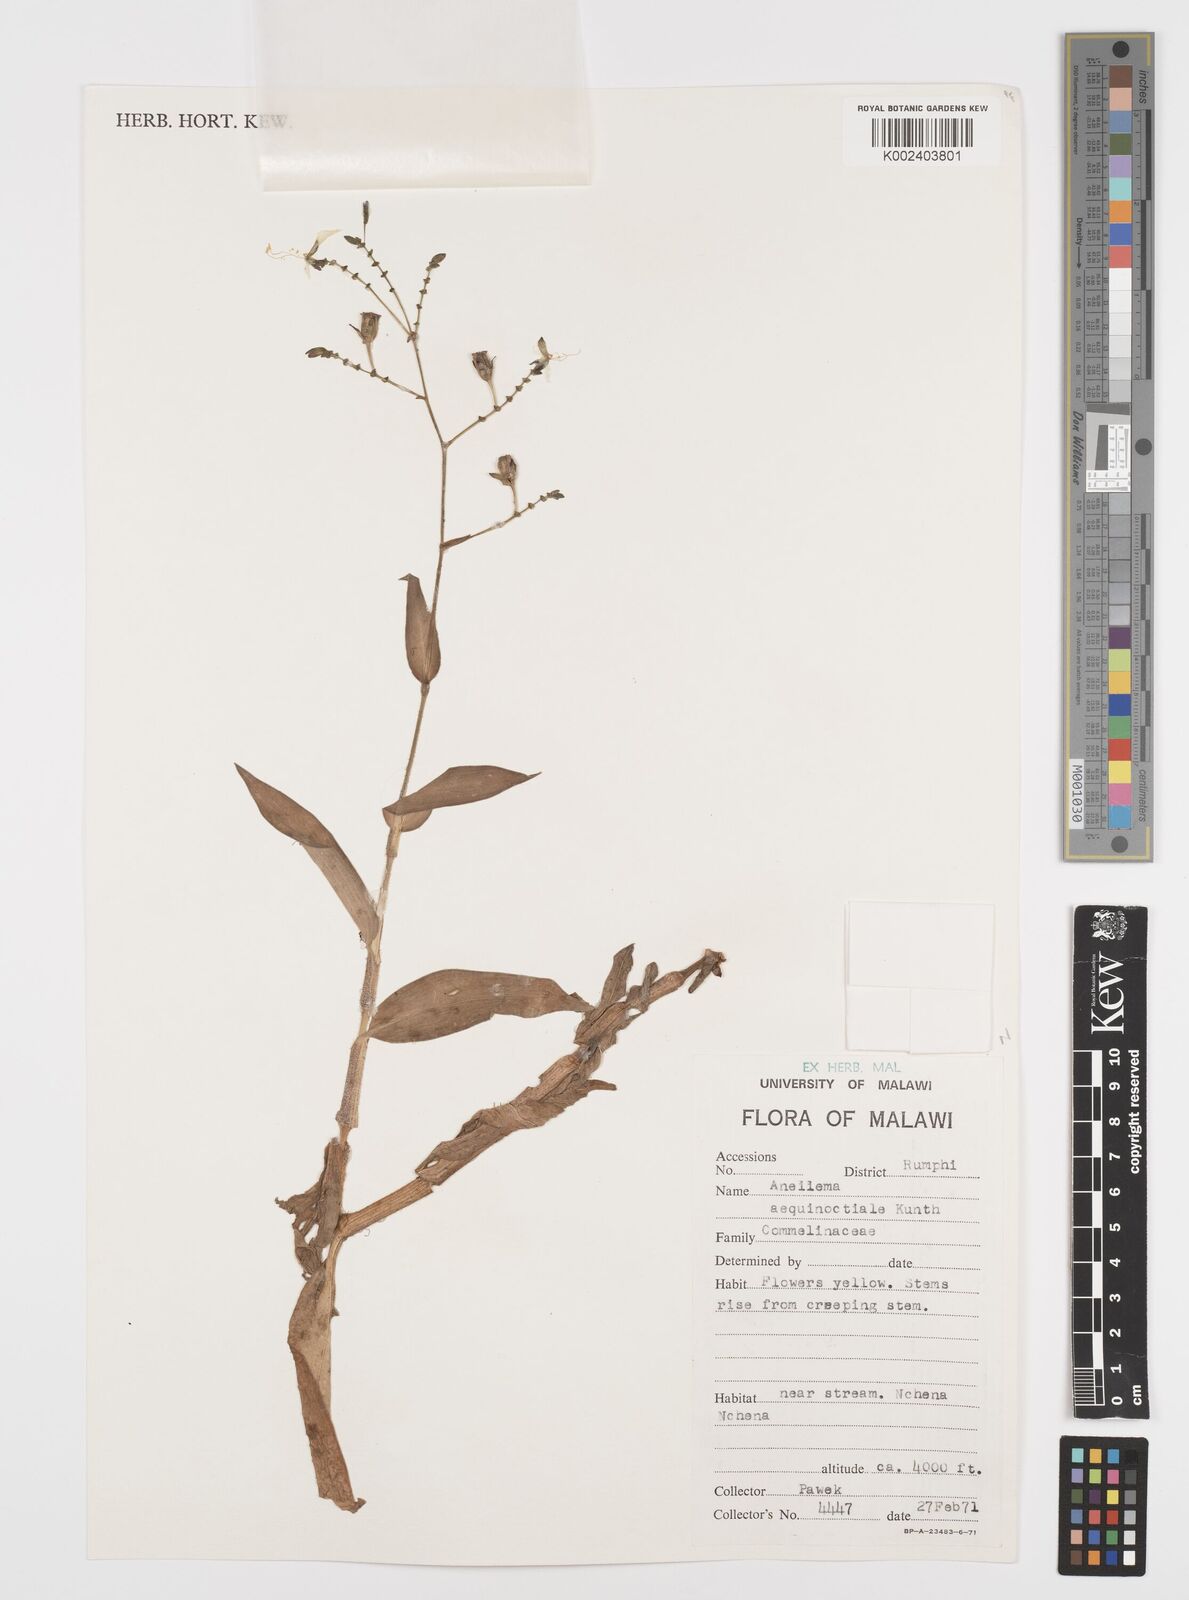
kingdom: Plantae
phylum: Tracheophyta
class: Liliopsida
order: Commelinales
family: Commelinaceae
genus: Aneilema
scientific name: Aneilema aequinoctiale
